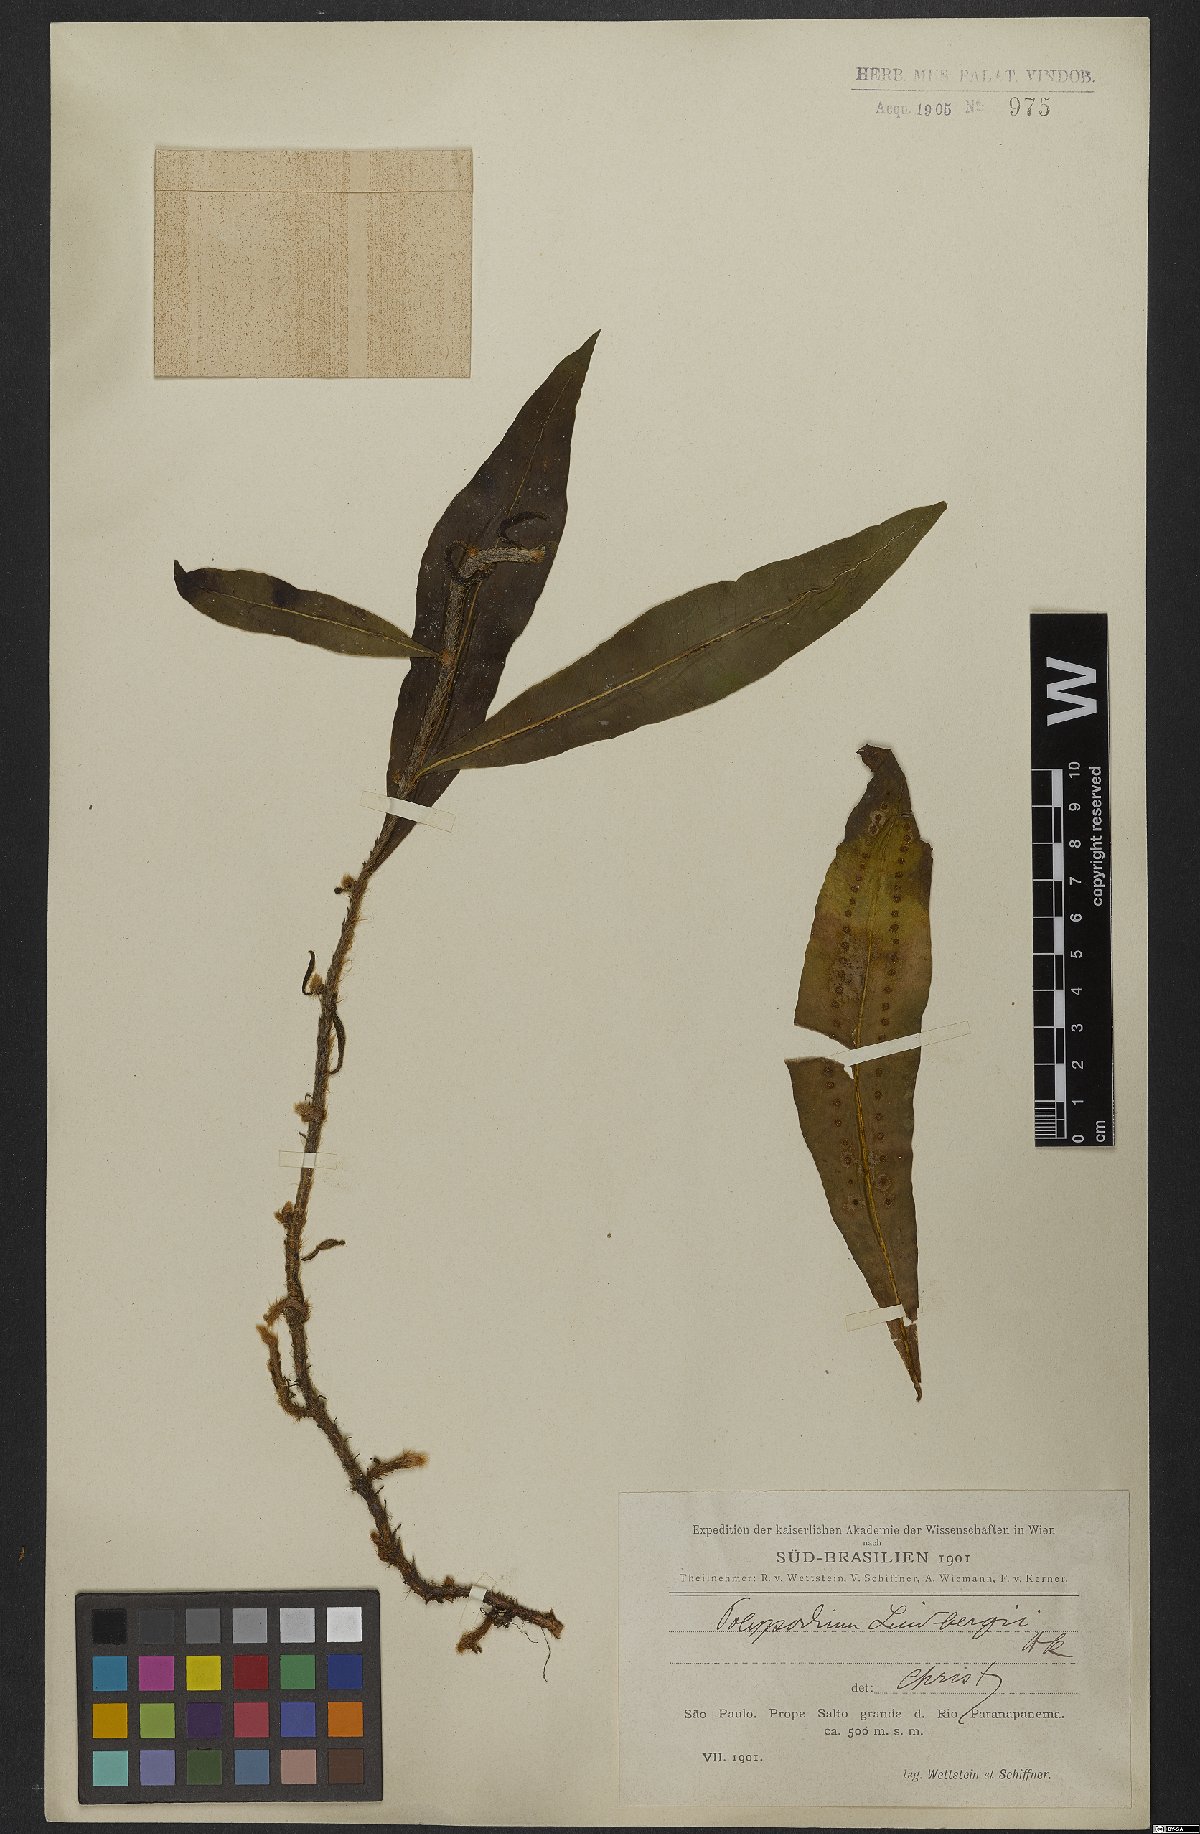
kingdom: Plantae
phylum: Tracheophyta
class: Polypodiopsida
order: Polypodiales
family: Polypodiaceae
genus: Microgramma
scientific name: Microgramma lindbergii
